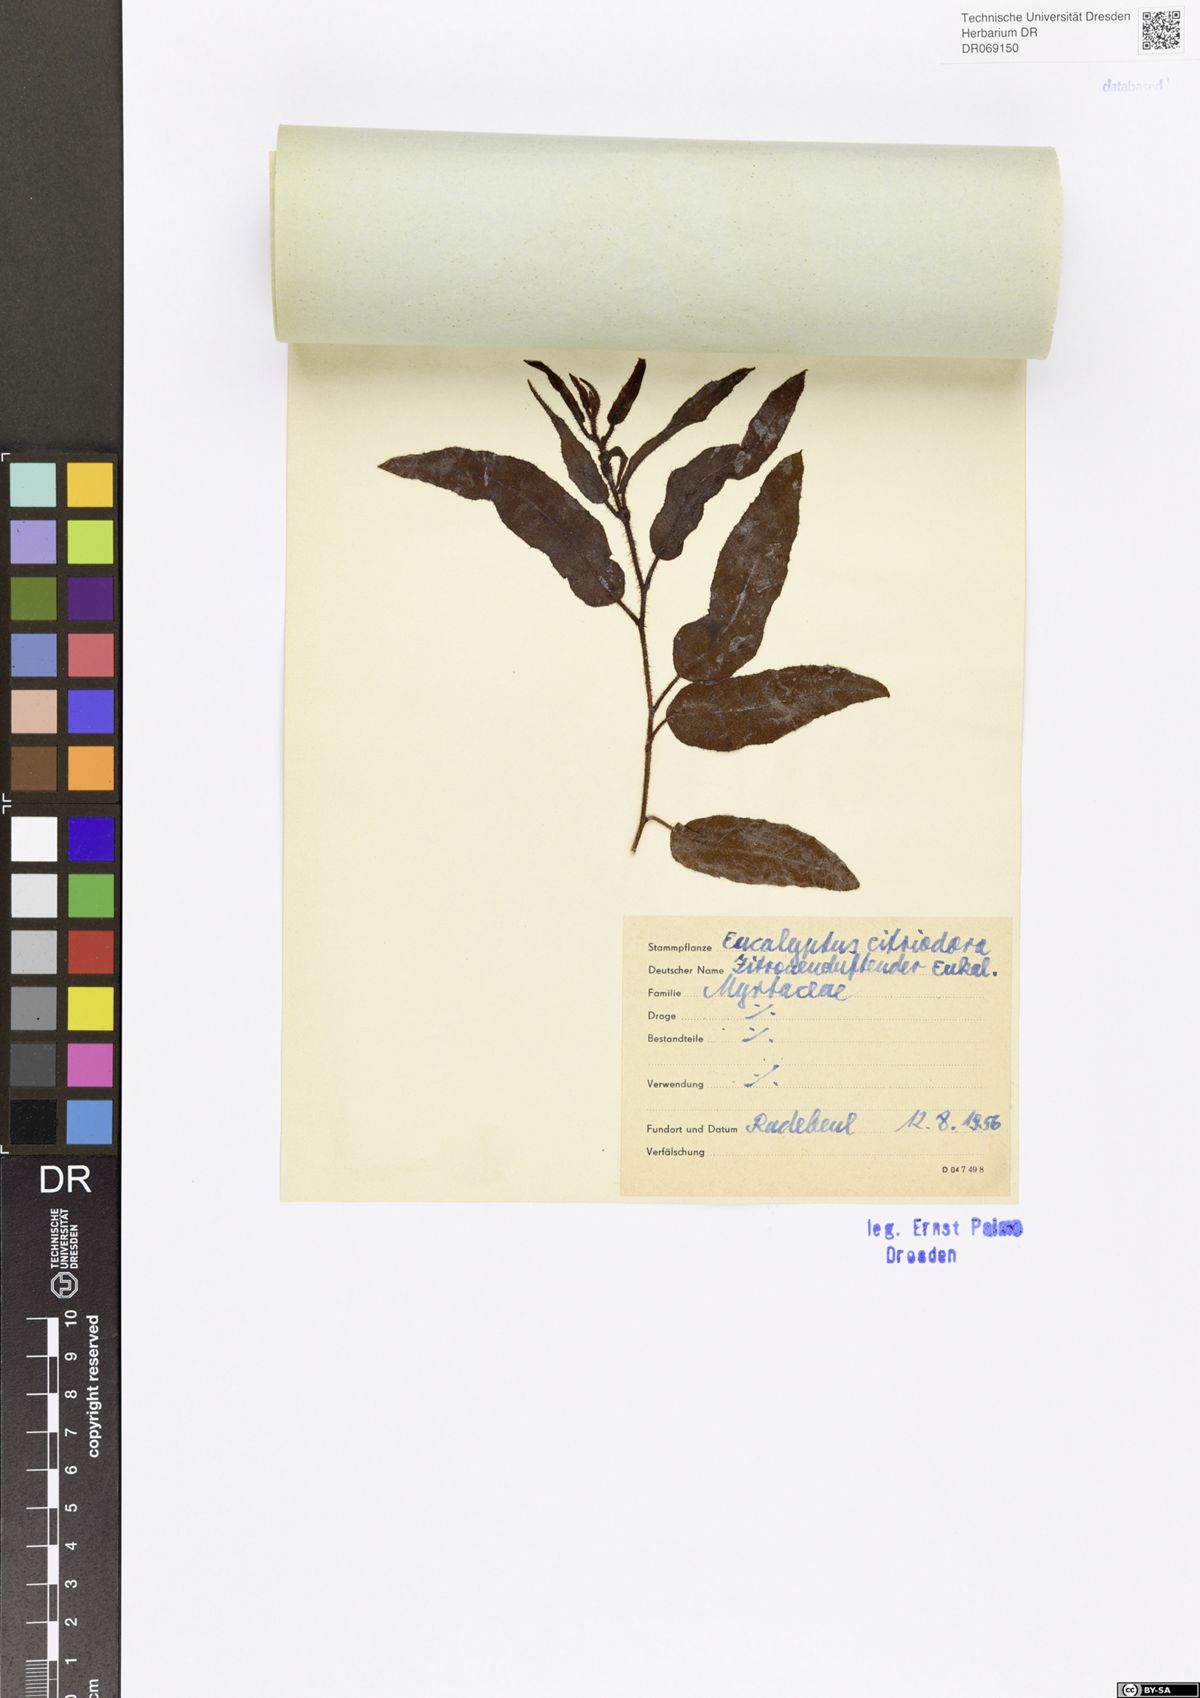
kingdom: Plantae
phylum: Tracheophyta
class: Magnoliopsida
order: Myrtales
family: Myrtaceae
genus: Corymbia
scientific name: Corymbia citriodora
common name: Lemonscented gum
